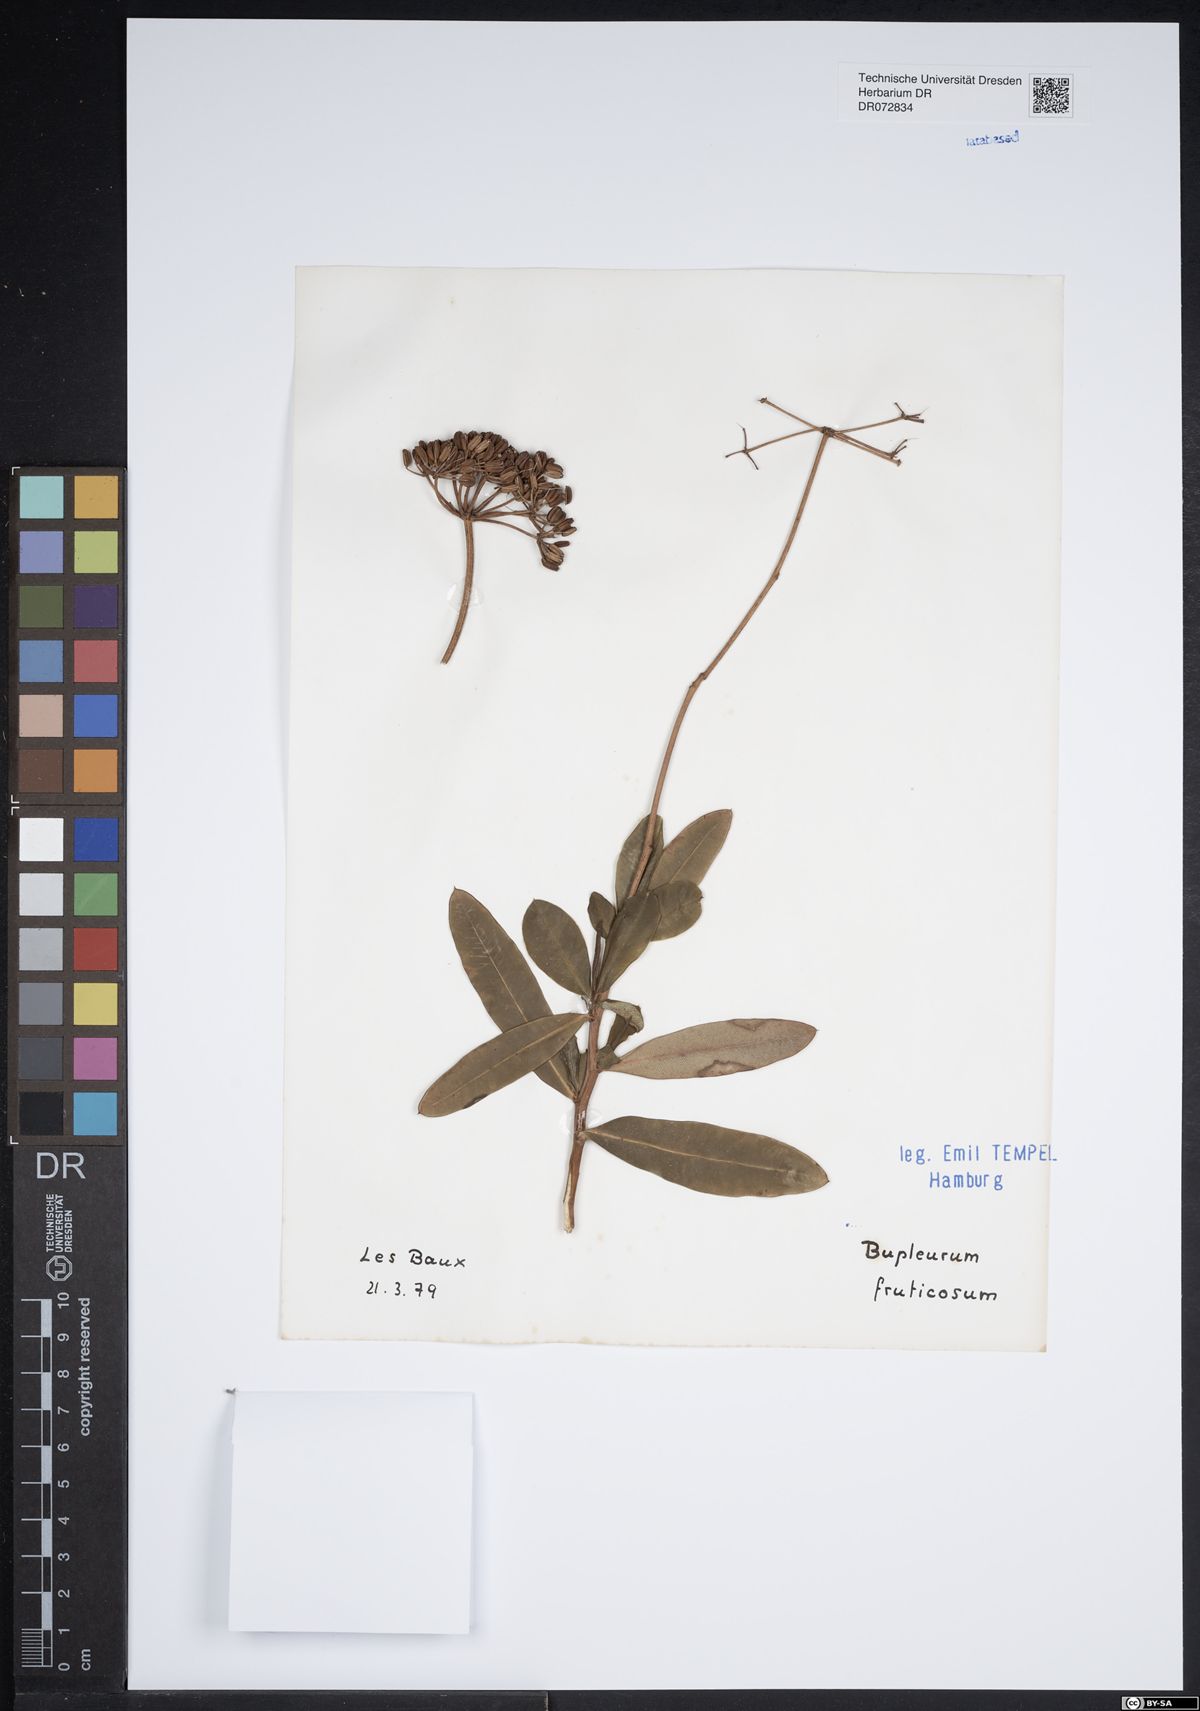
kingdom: Plantae
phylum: Tracheophyta
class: Magnoliopsida
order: Apiales
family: Apiaceae
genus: Bupleurum
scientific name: Bupleurum fruticosum
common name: Shrubby hare's-ear
